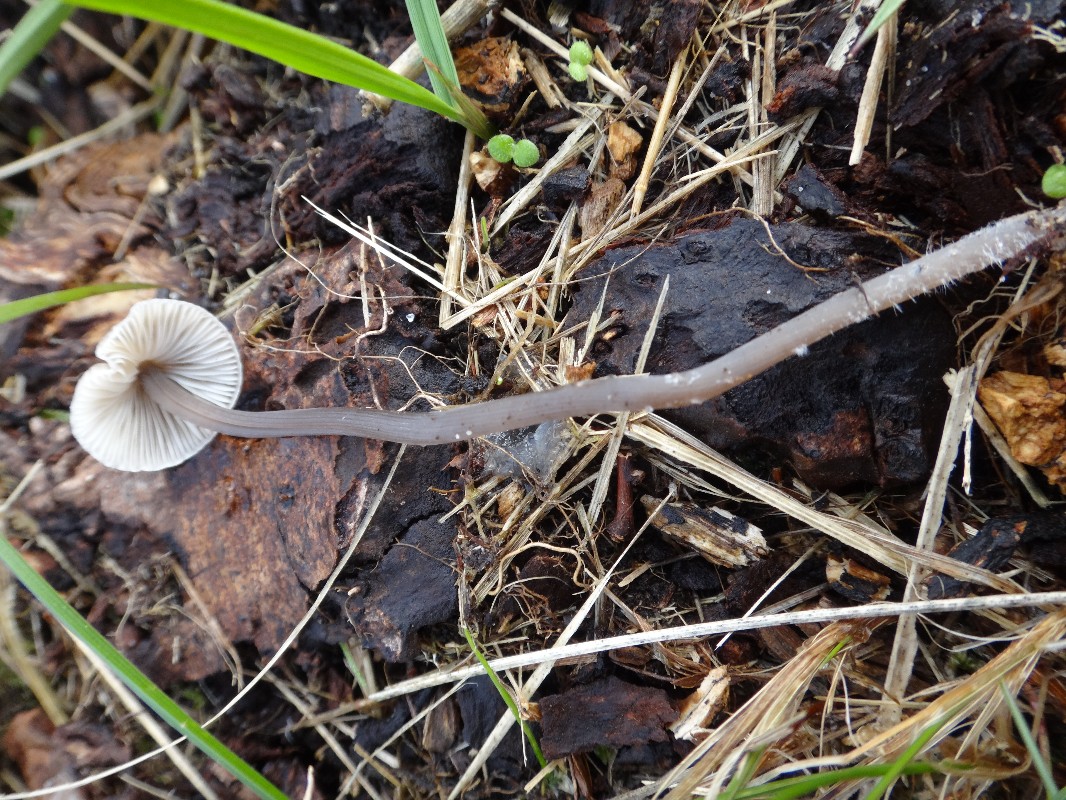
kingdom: Fungi
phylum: Basidiomycota
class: Agaricomycetes
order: Agaricales
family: Mycenaceae
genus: Mycena
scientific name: Mycena polygramma
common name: mangestribet huesvamp
